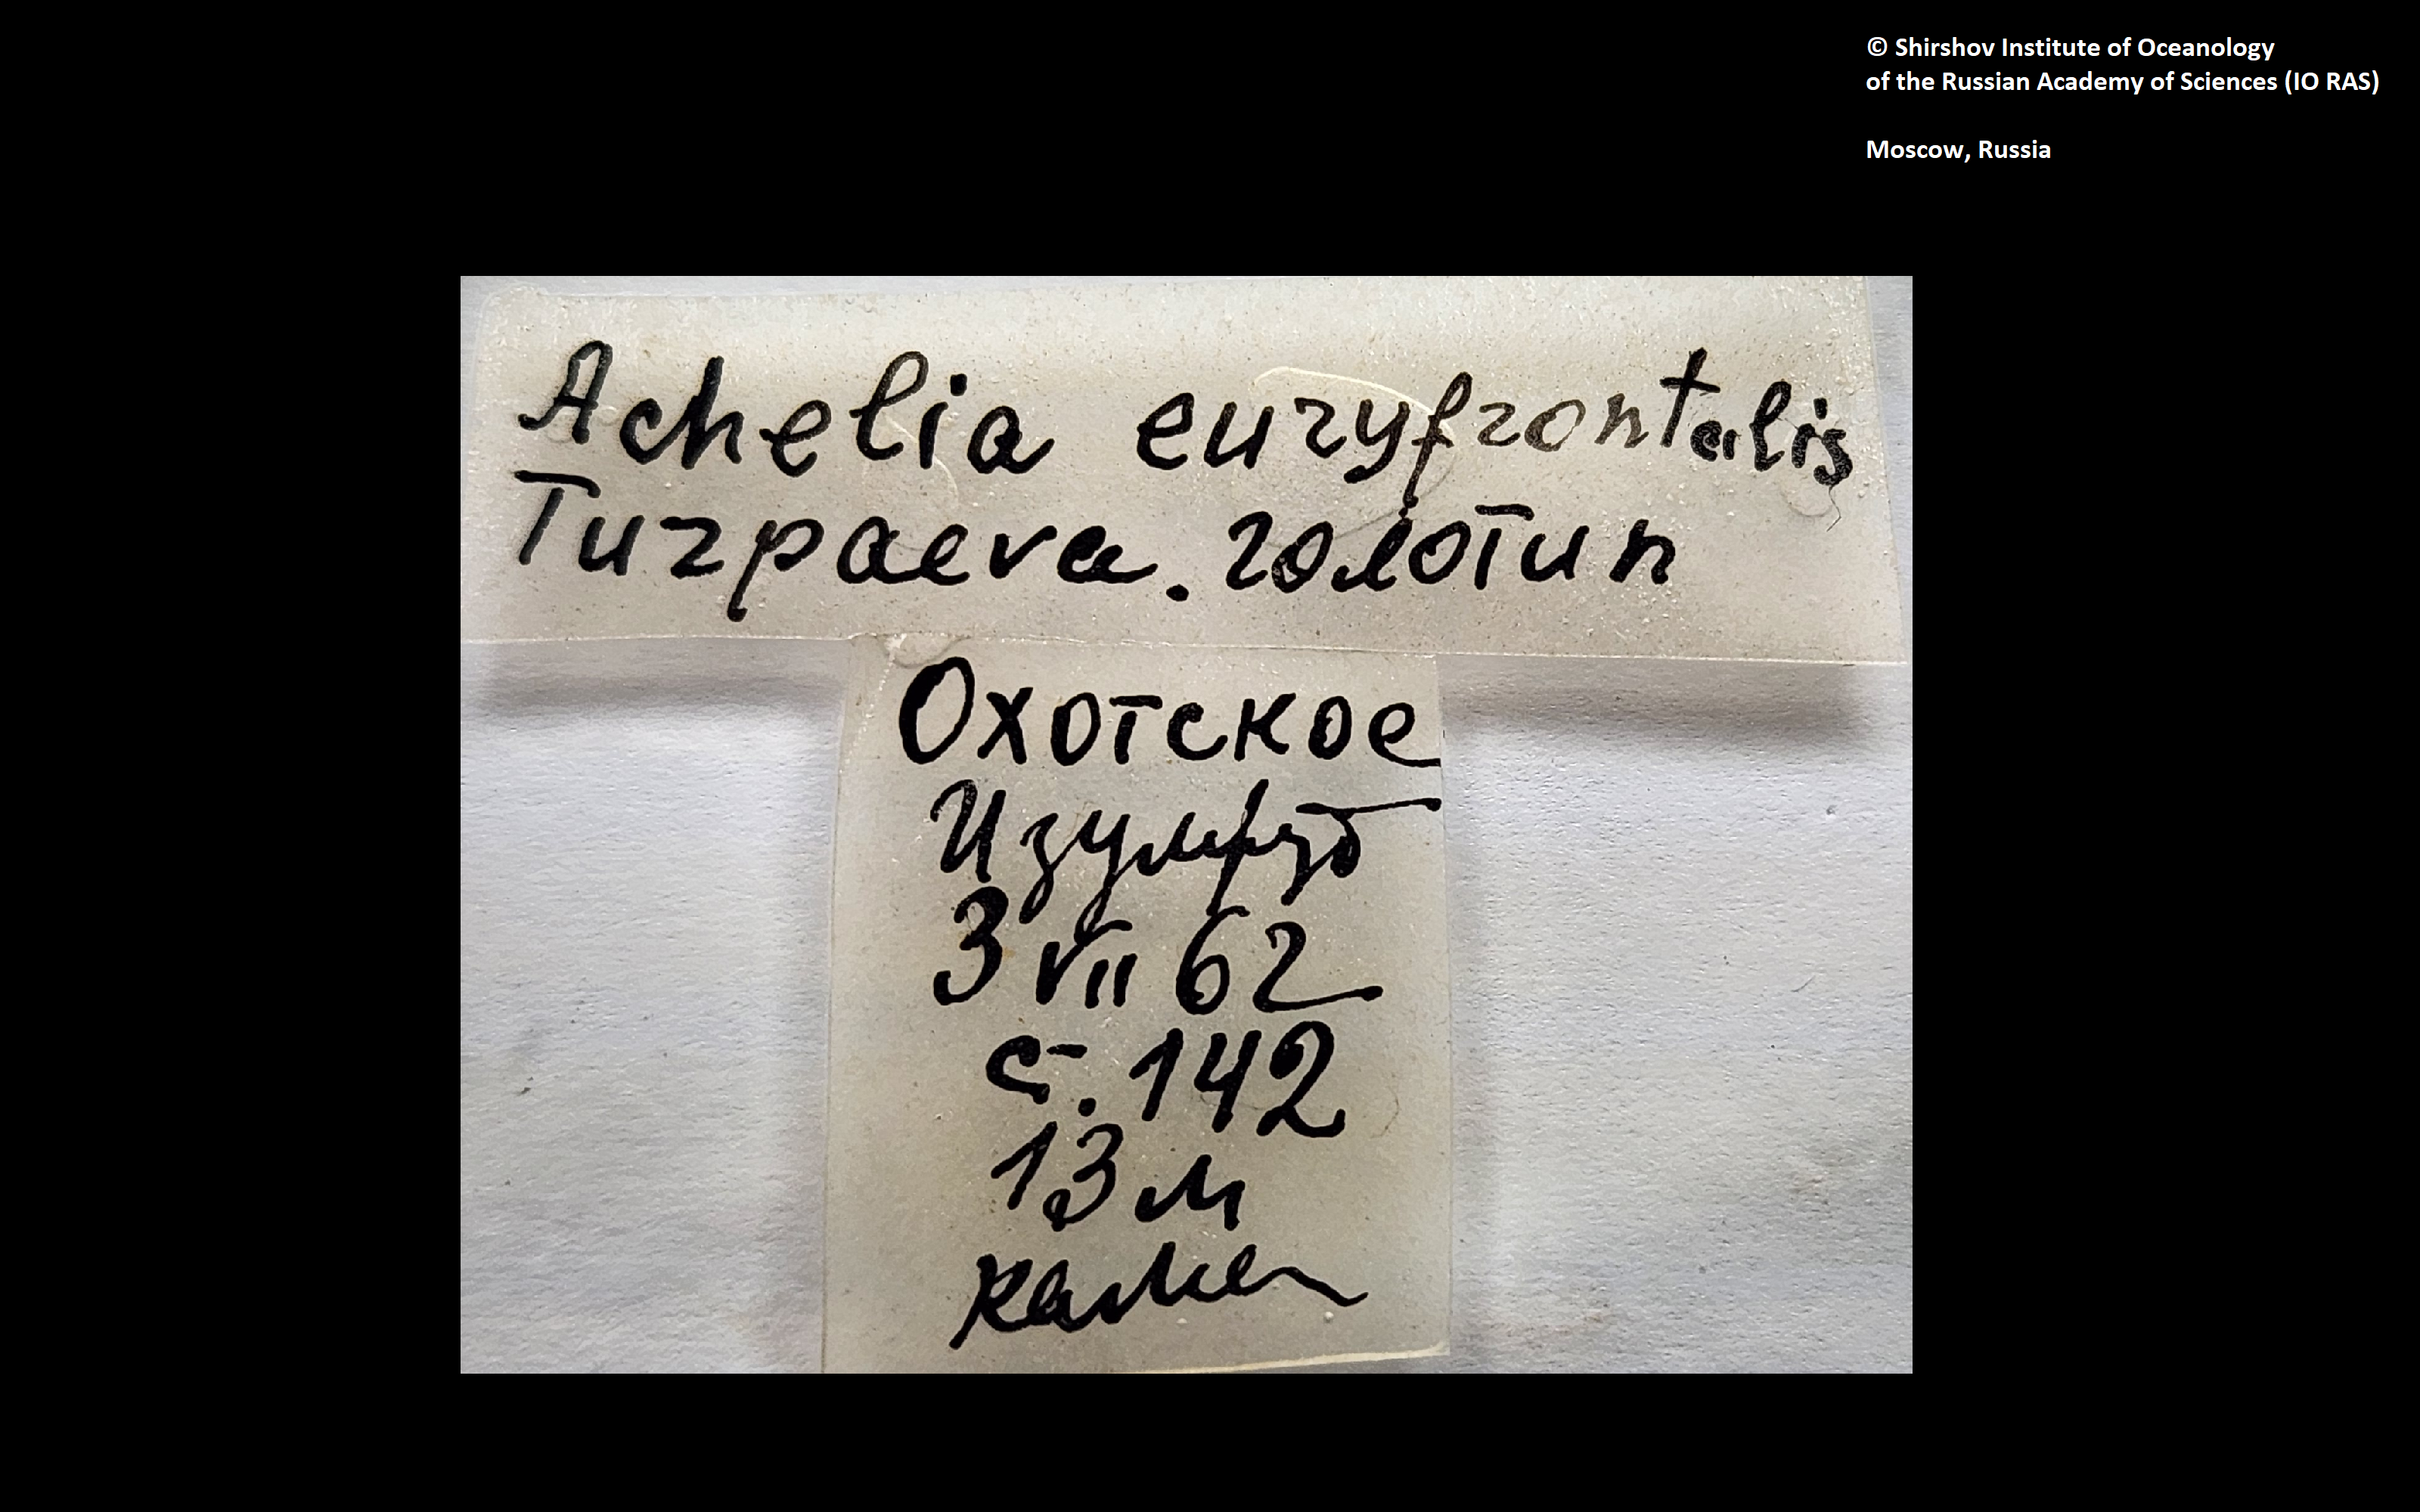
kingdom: Animalia
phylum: Arthropoda
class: Pycnogonida
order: Pantopoda
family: Ammotheidae
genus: Achelia
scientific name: Achelia euryfrontalis
